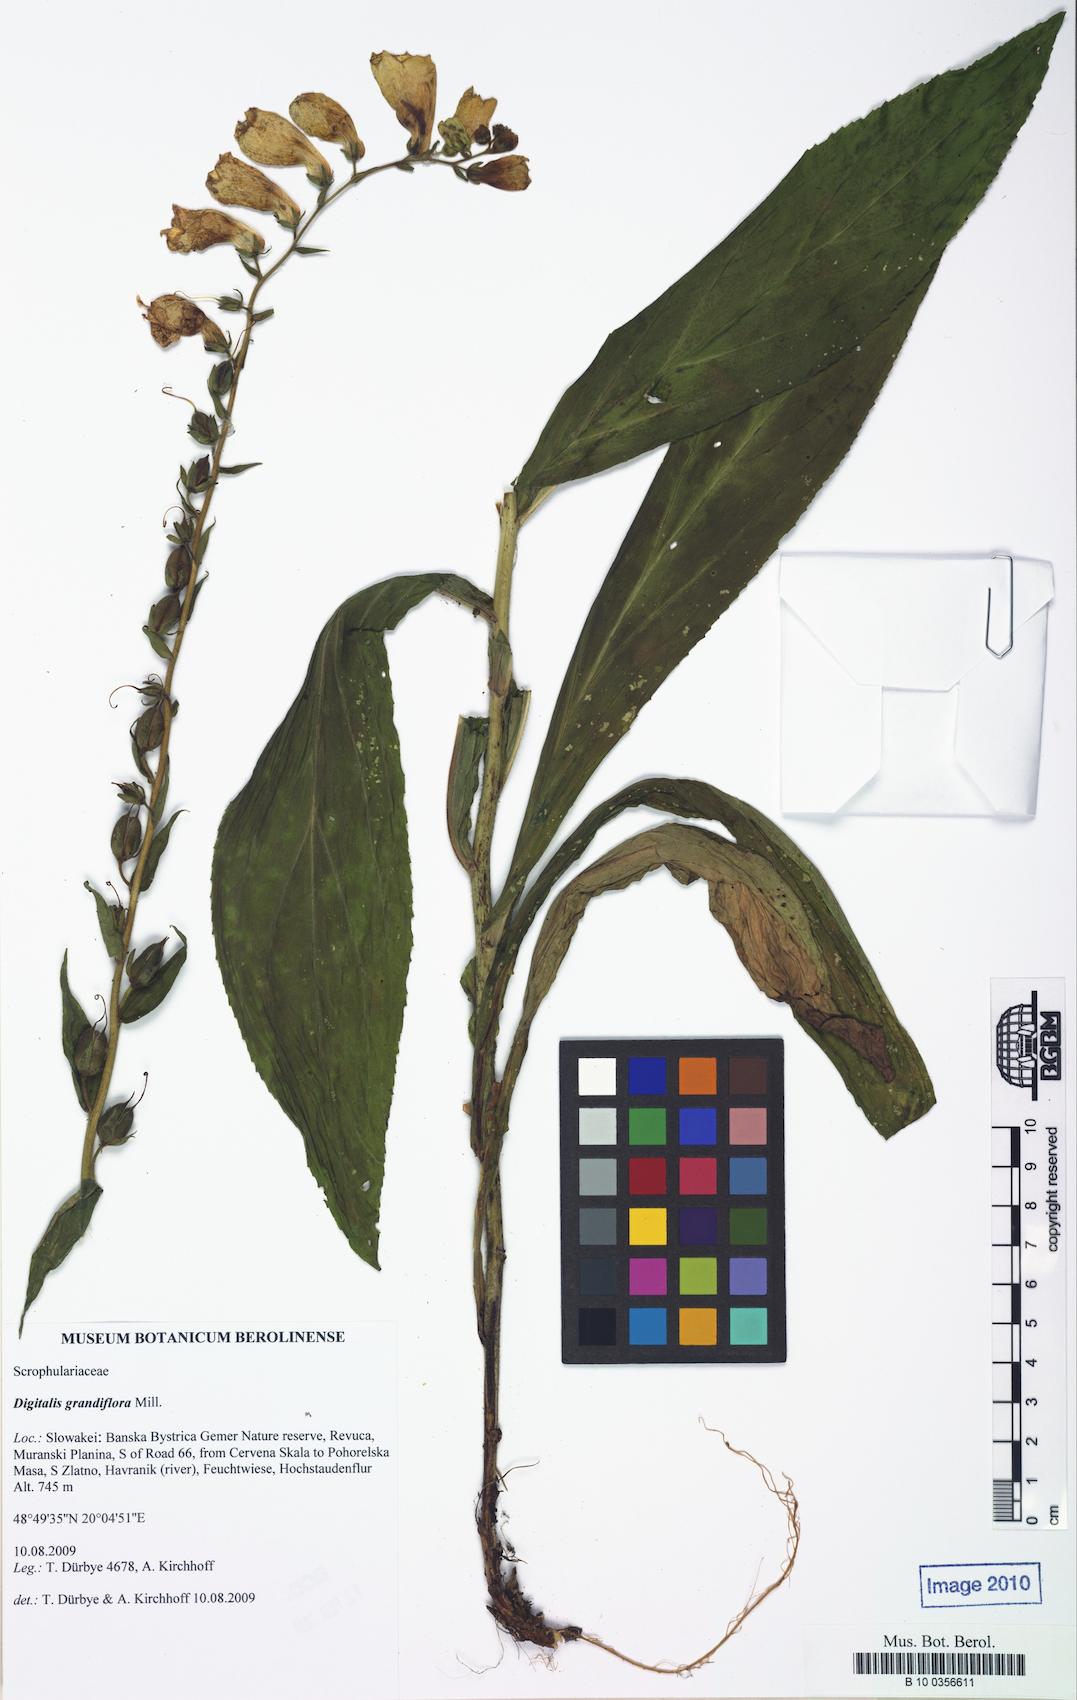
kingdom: Plantae
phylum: Tracheophyta
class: Magnoliopsida
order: Lamiales
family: Plantaginaceae
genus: Digitalis
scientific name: Digitalis grandiflora
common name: Yellow foxglove
